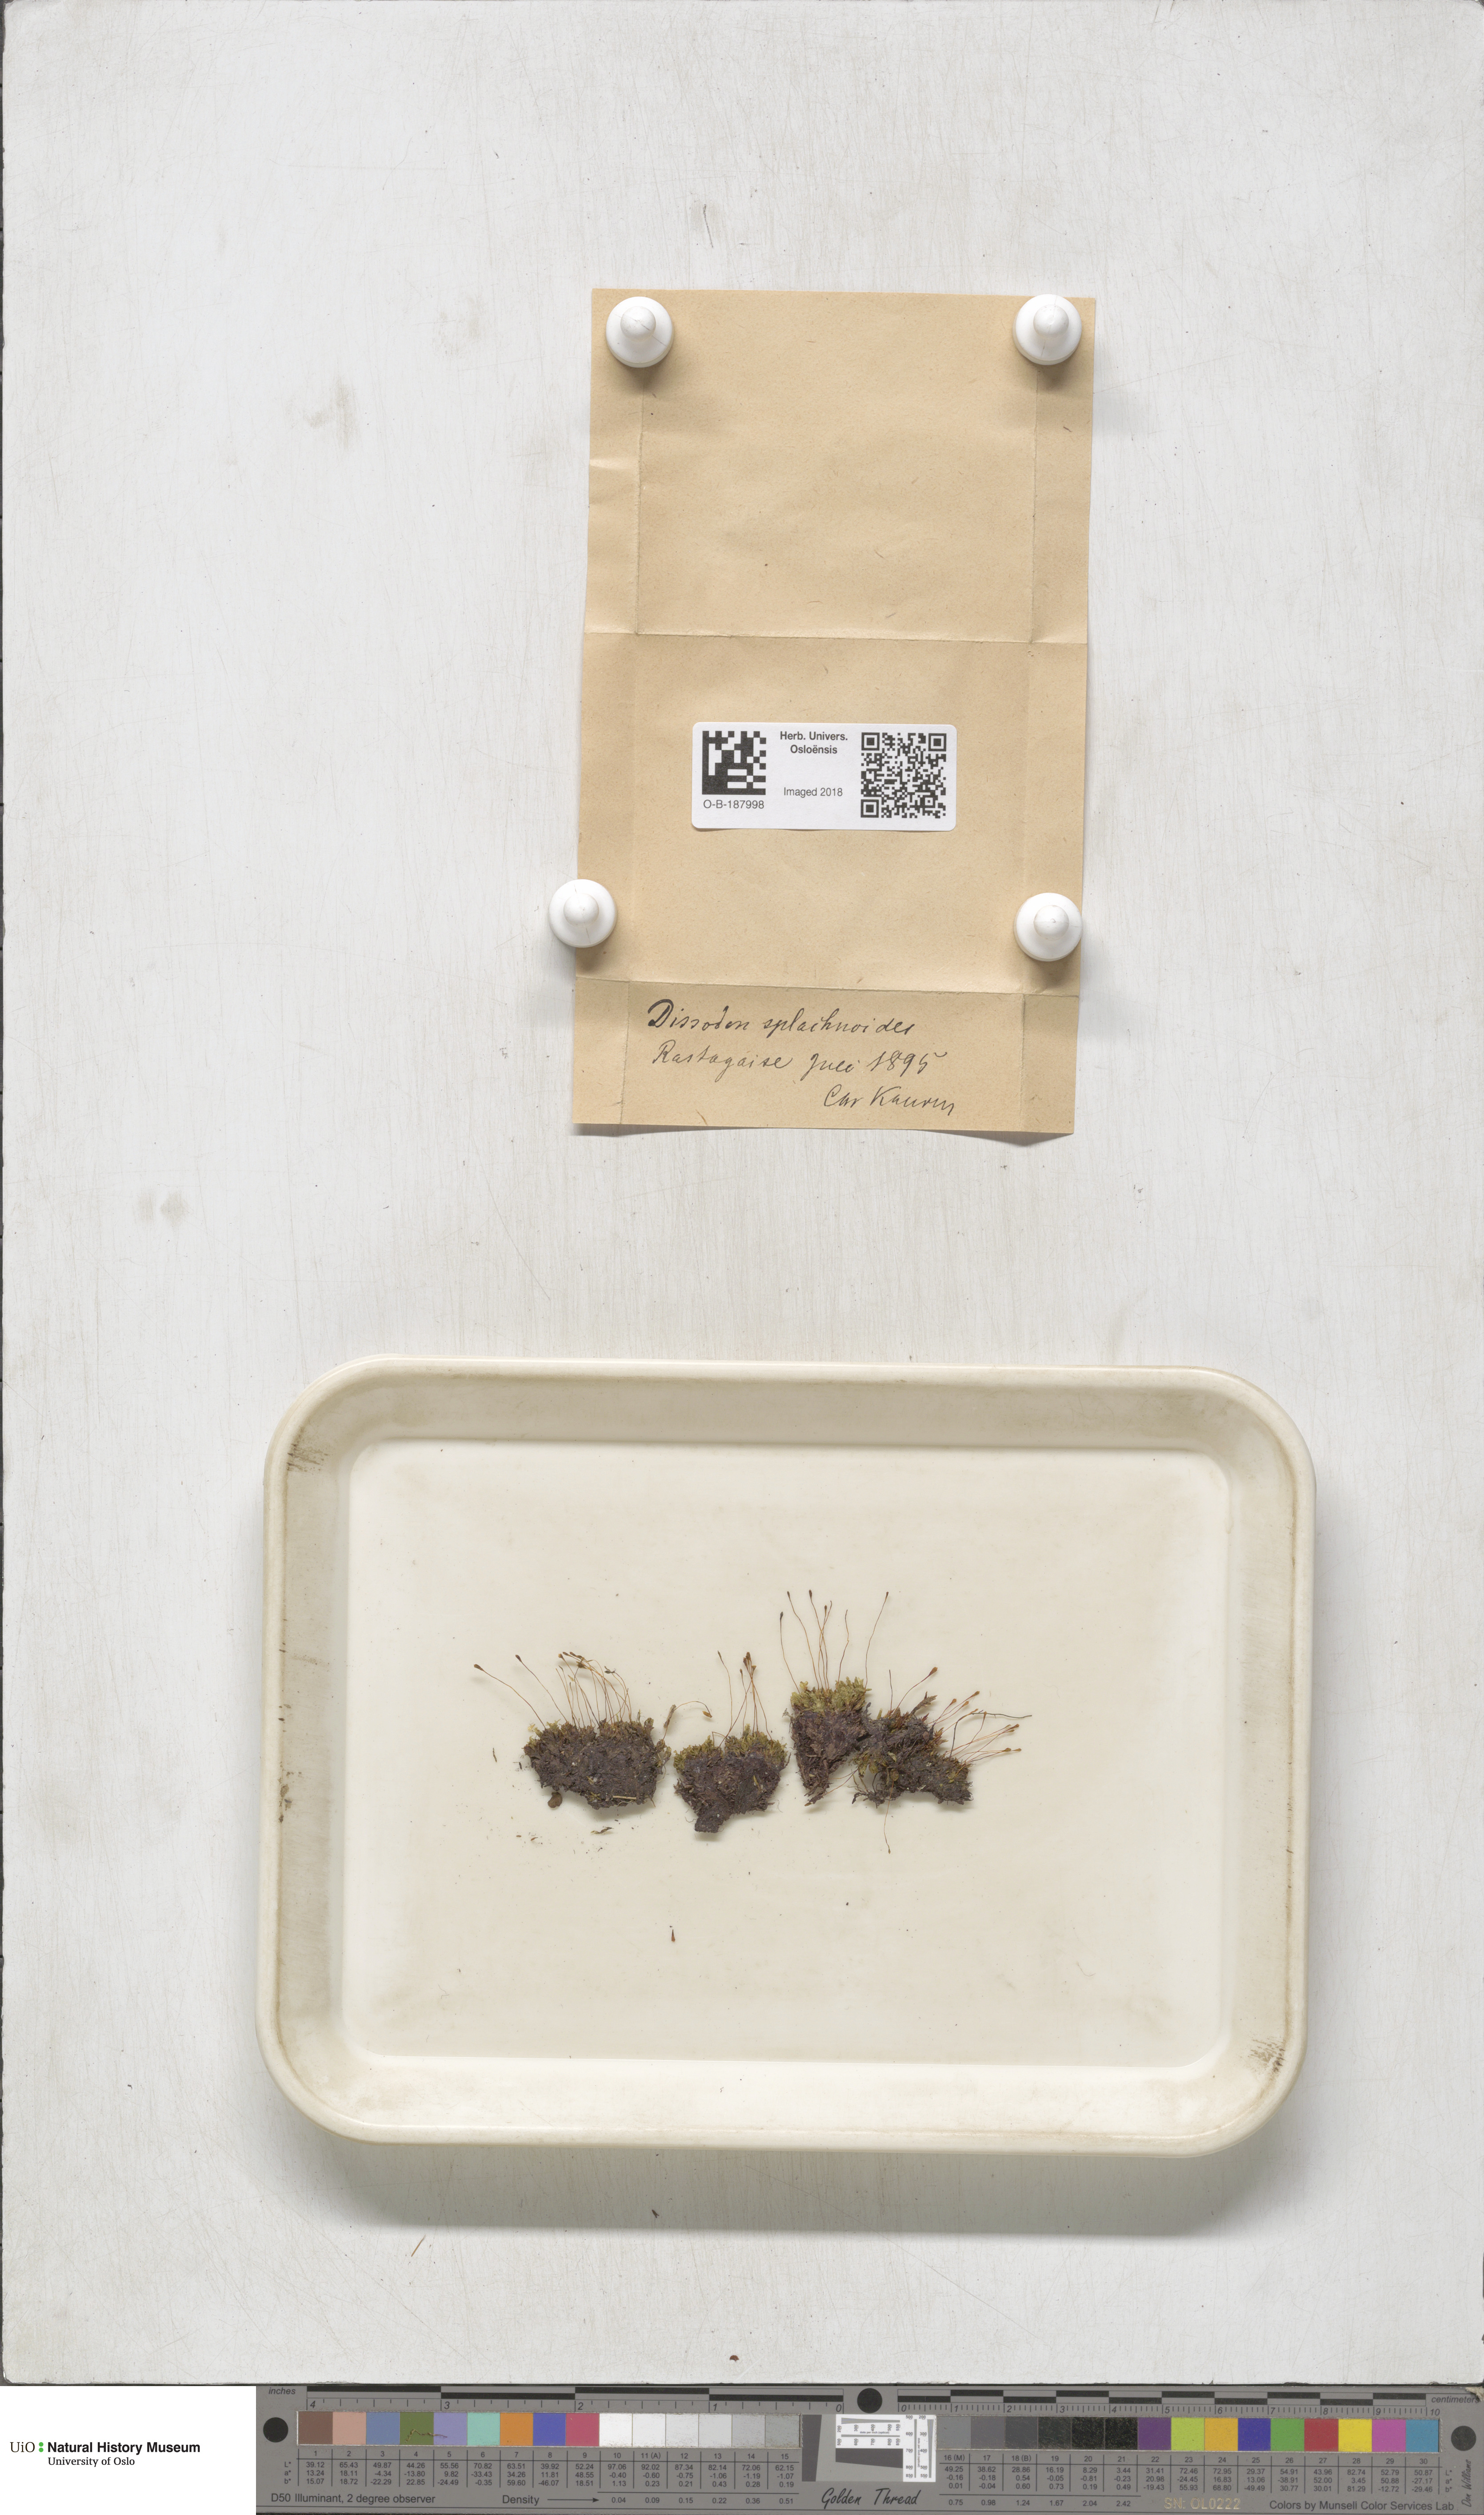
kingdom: Plantae
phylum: Bryophyta
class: Bryopsida
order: Splachnales
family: Splachnaceae
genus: Tayloria
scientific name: Tayloria lingulata
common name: Tongue-leaved trumpet moss
